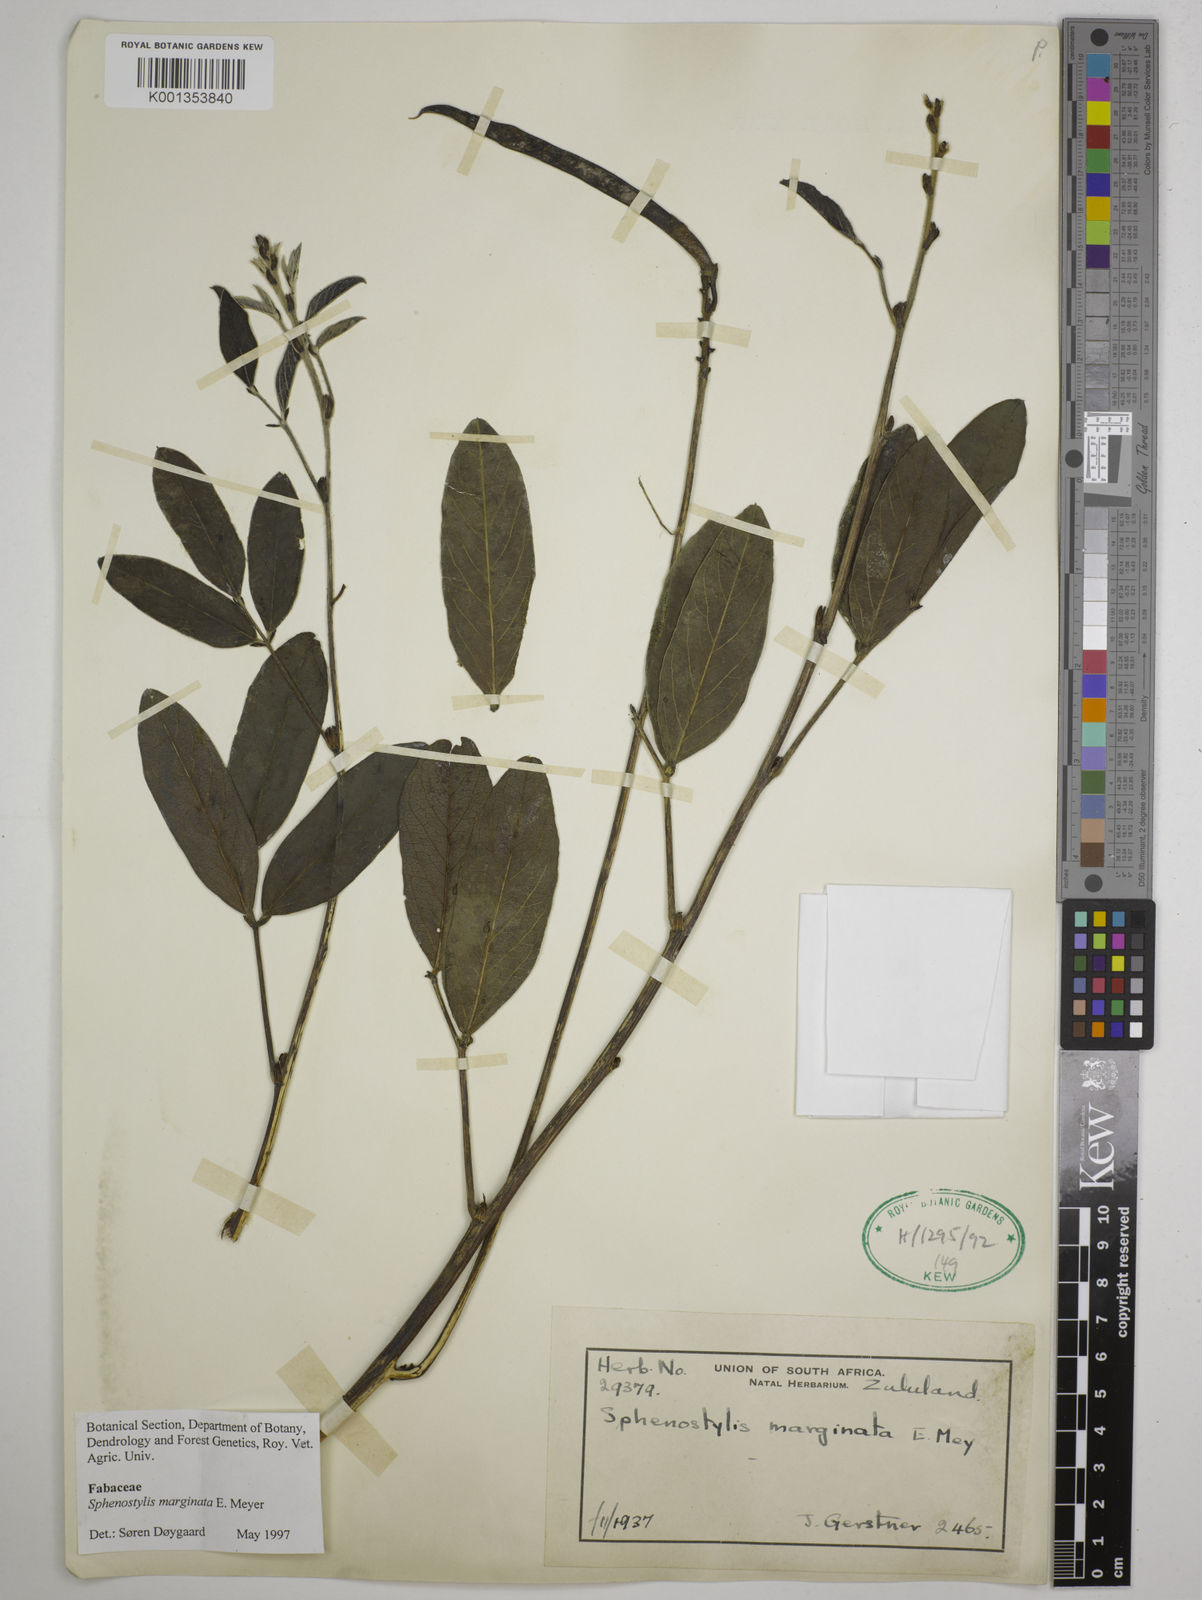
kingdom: Plantae
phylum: Tracheophyta
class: Magnoliopsida
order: Fabales
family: Fabaceae
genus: Sphenostylis
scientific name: Sphenostylis marginata
